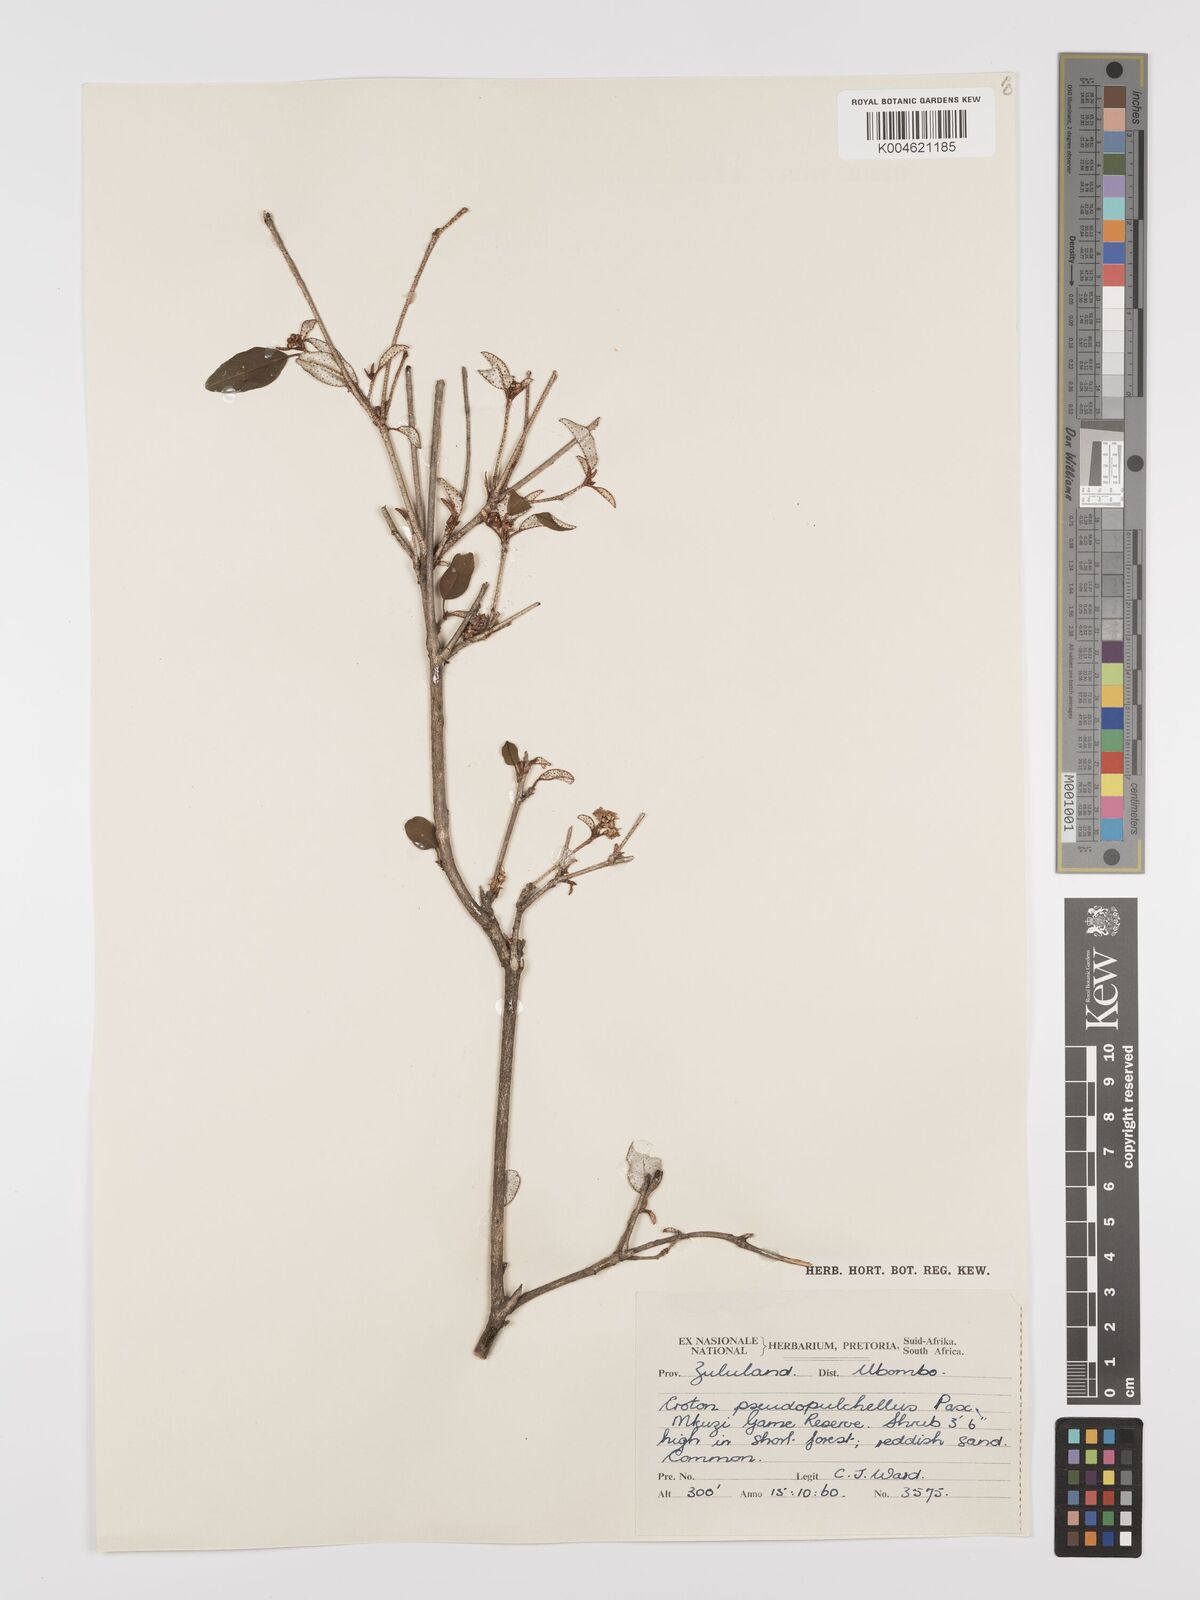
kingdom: Plantae
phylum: Tracheophyta
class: Magnoliopsida
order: Malpighiales
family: Euphorbiaceae
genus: Croton
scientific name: Croton pseudopulchellus
